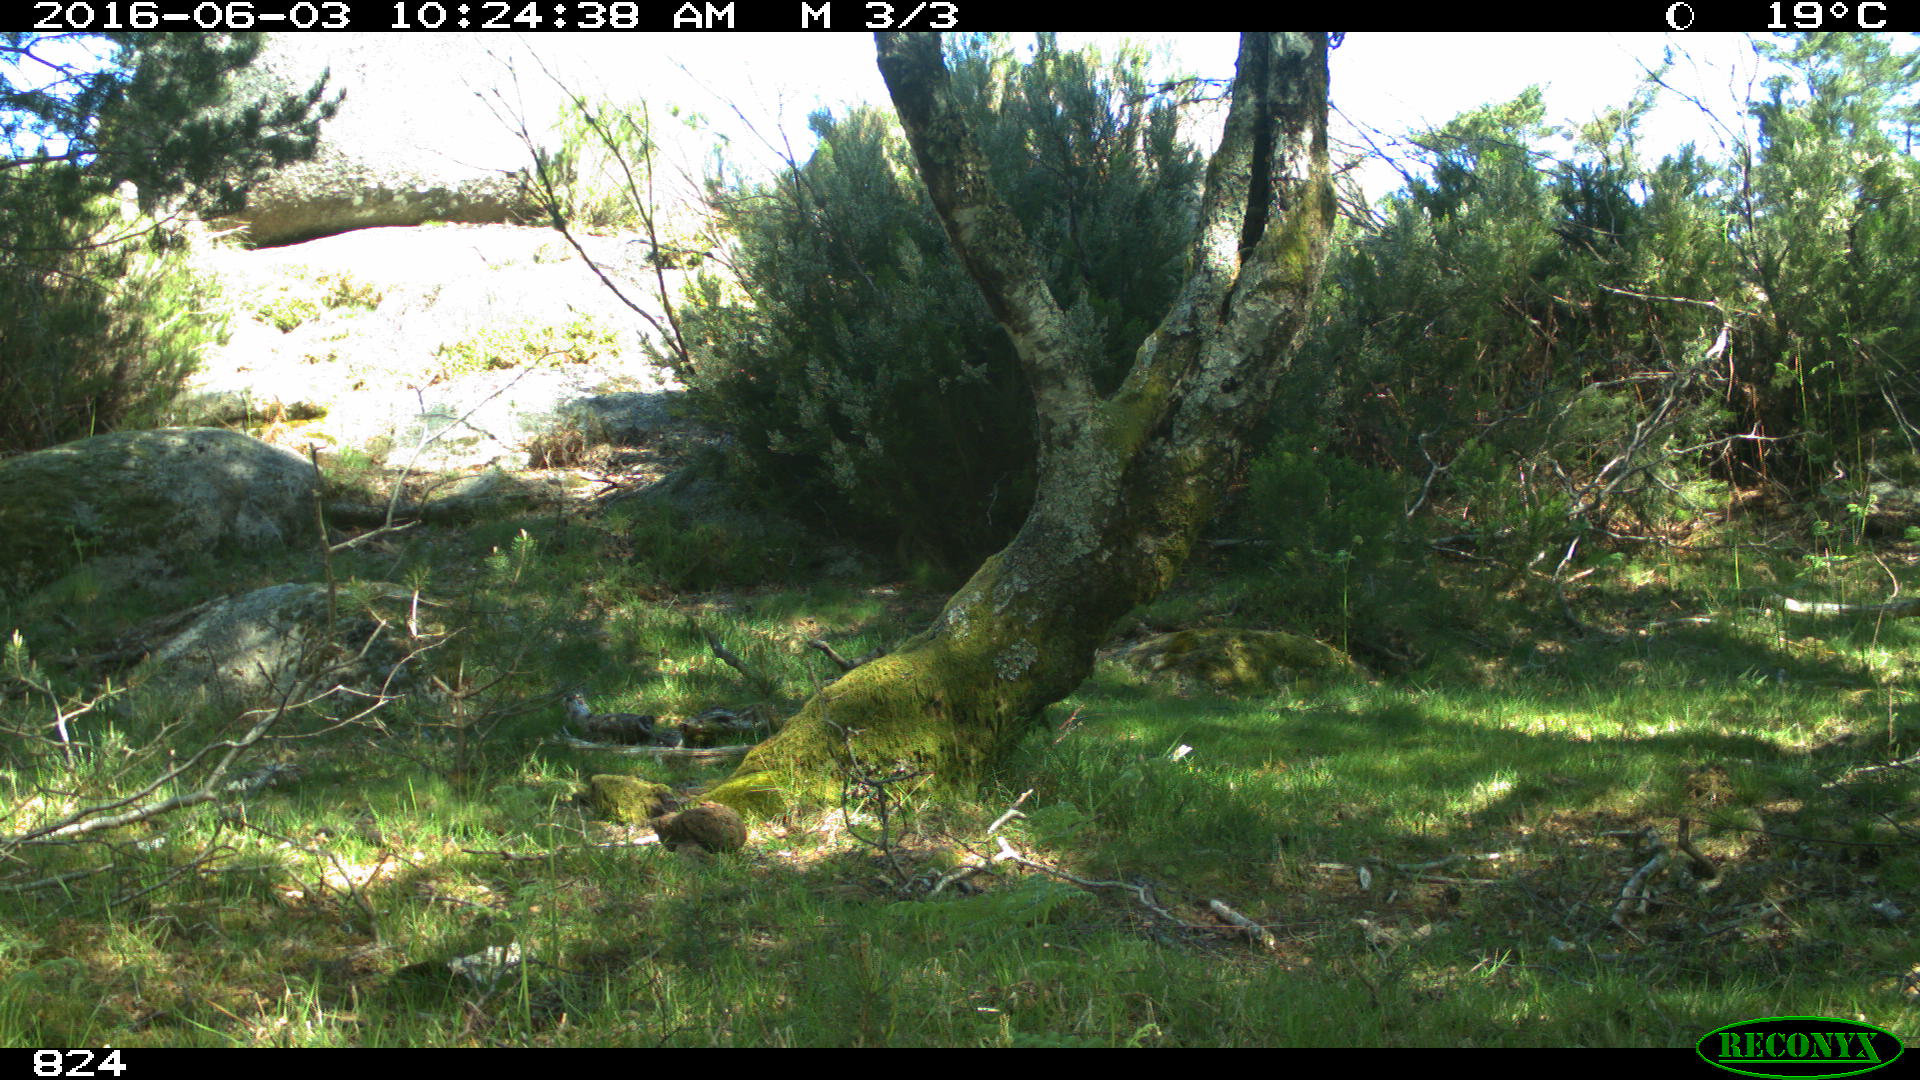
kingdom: Animalia
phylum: Chordata
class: Mammalia
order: Artiodactyla
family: Bovidae
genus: Bos
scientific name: Bos taurus
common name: Domesticated cattle
